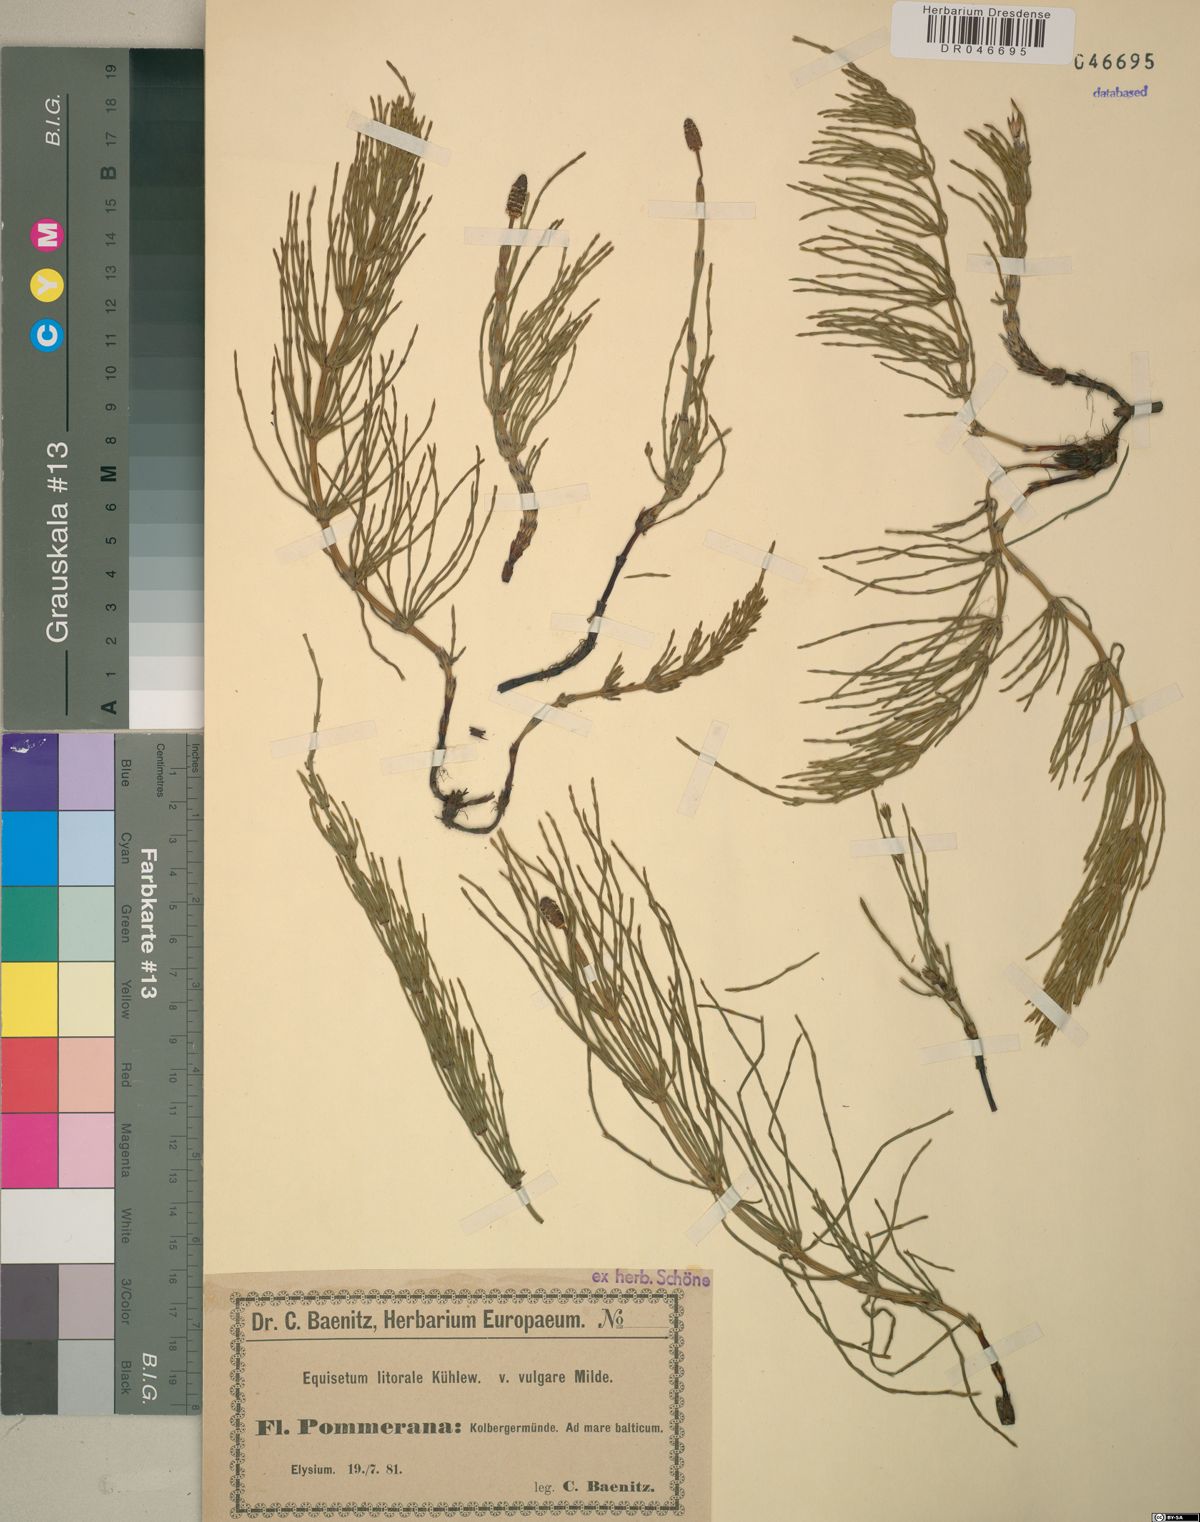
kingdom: Plantae
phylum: Tracheophyta
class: Polypodiopsida
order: Equisetales
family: Equisetaceae
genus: Equisetum
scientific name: Equisetum litorale
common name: Littoral horsetail
